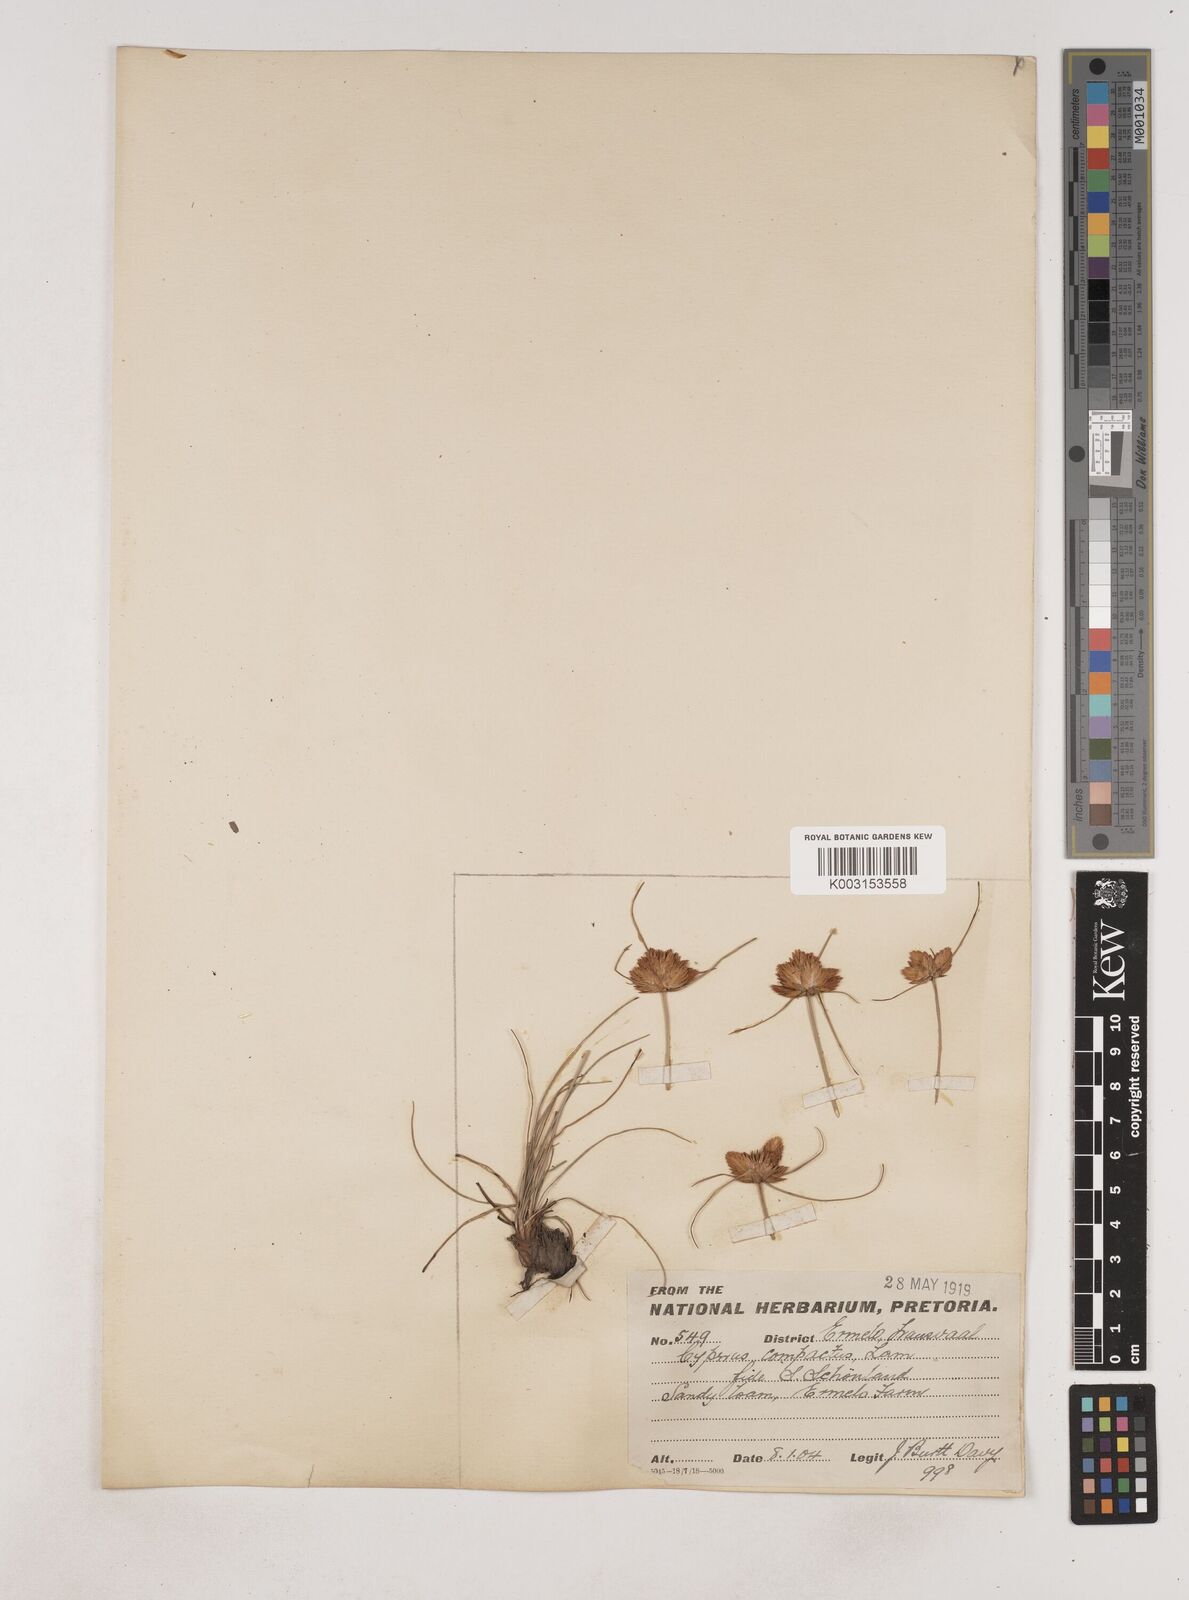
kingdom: Plantae
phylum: Tracheophyta
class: Liliopsida
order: Poales
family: Cyperaceae
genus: Cyperus
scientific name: Cyperus niveus
